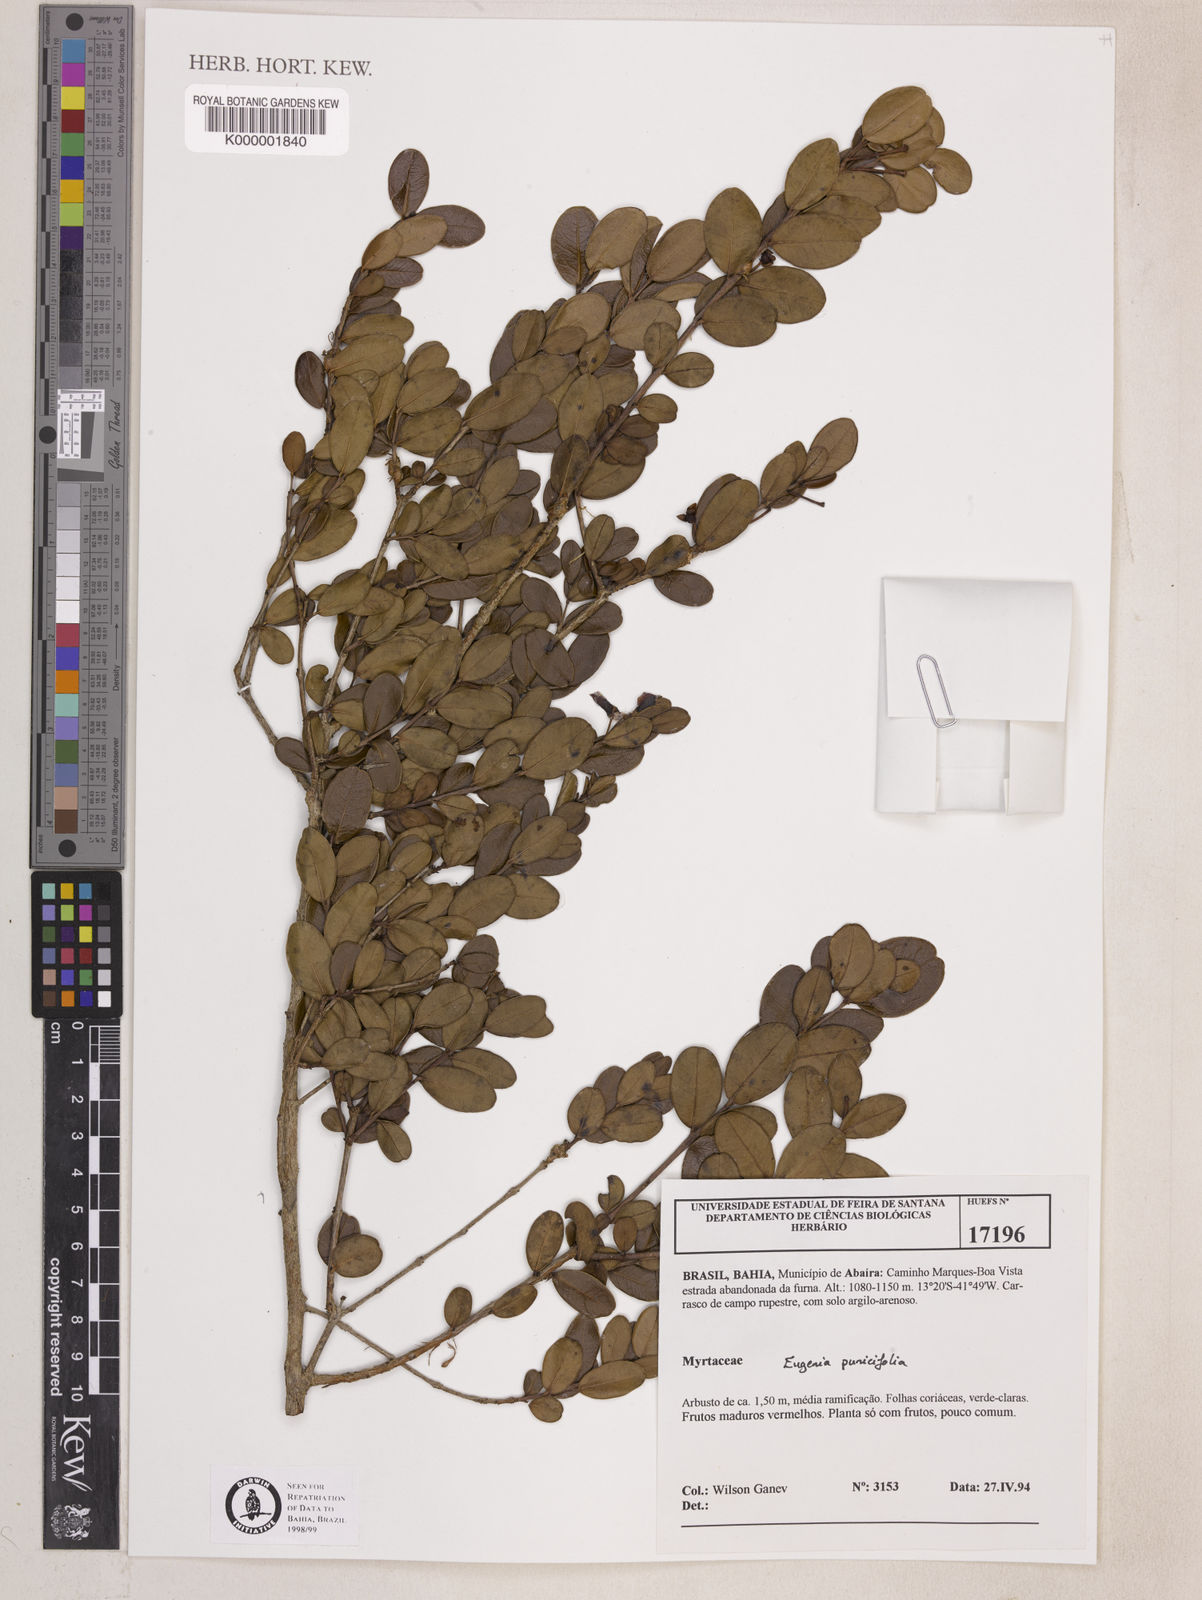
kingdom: Plantae
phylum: Tracheophyta
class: Magnoliopsida
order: Myrtales
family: Myrtaceae
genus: Eugenia
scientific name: Eugenia punicifolia
